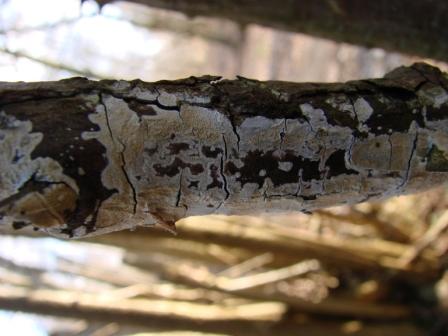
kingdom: Fungi
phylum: Basidiomycota
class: Agaricomycetes
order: Corticiales
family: Corticiaceae
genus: Lyomyces
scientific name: Lyomyces crustosus
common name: vortet hyldehinde
